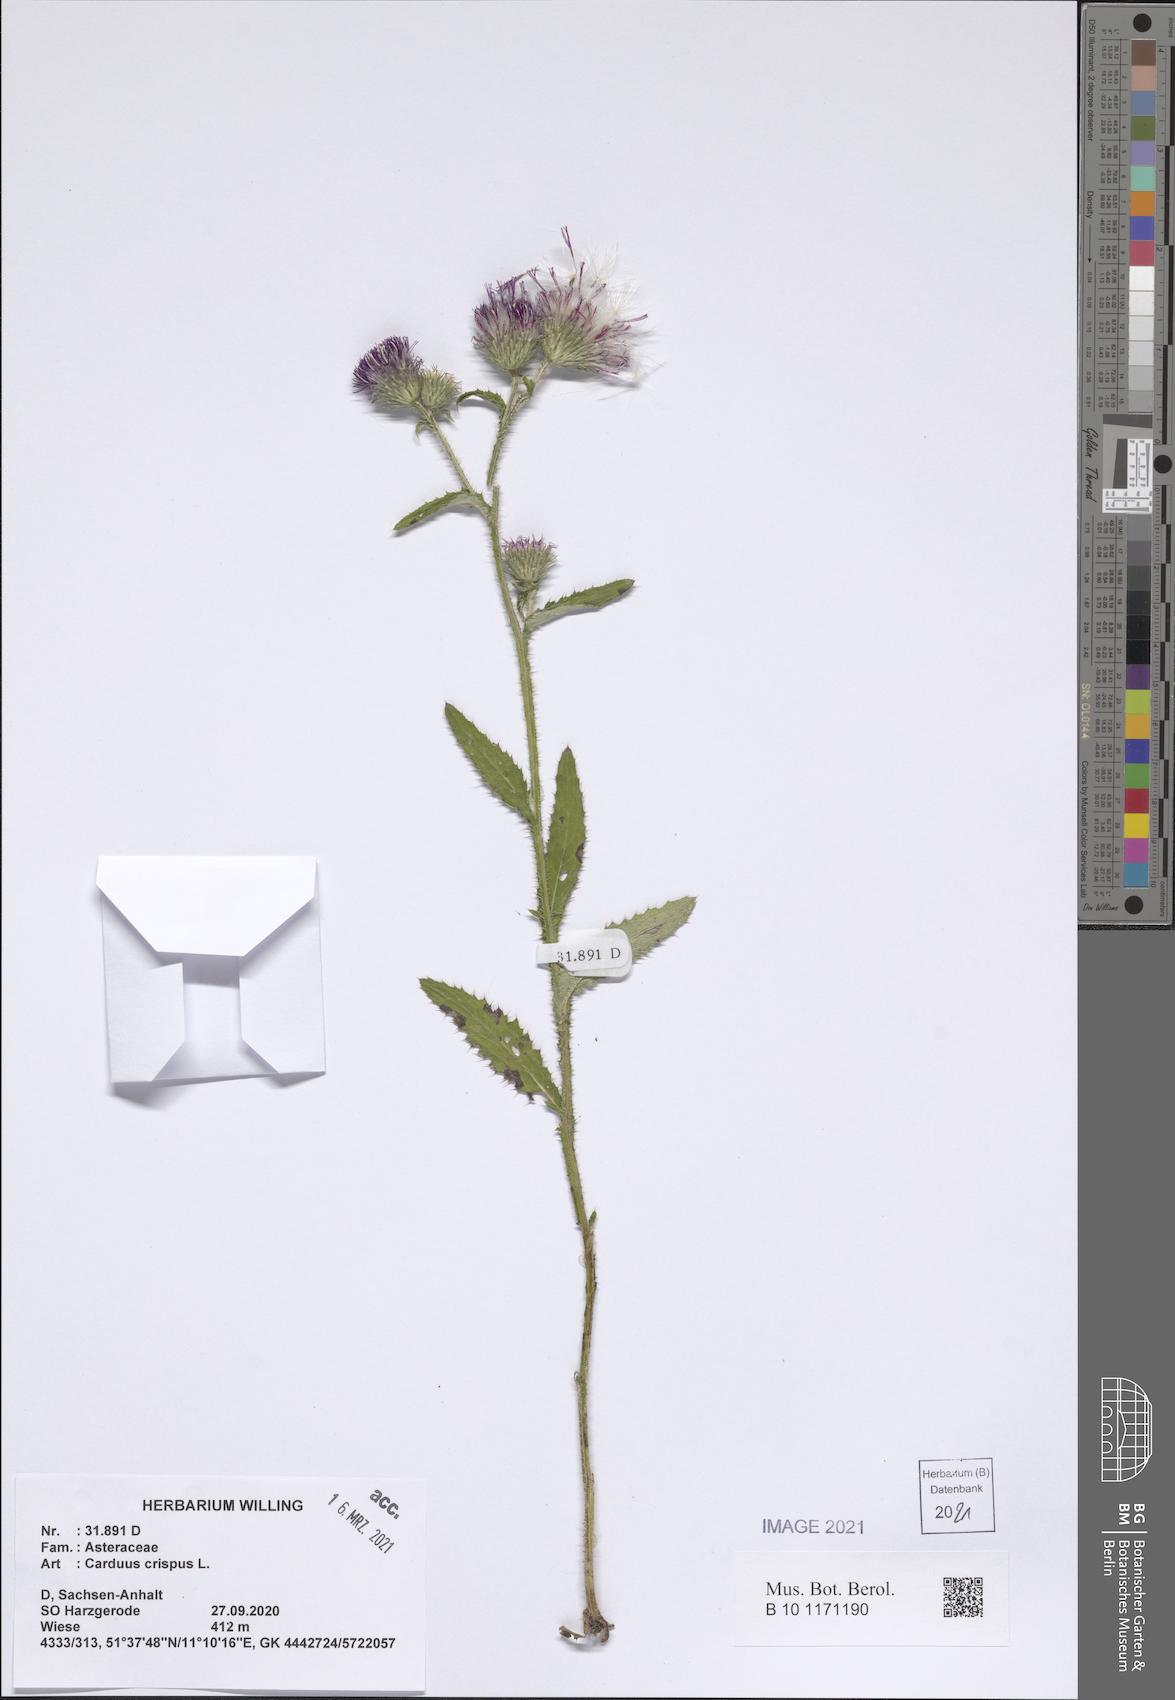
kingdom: Plantae
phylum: Tracheophyta
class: Magnoliopsida
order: Asterales
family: Asteraceae
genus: Carduus
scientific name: Carduus crispus
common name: Welted thistle
